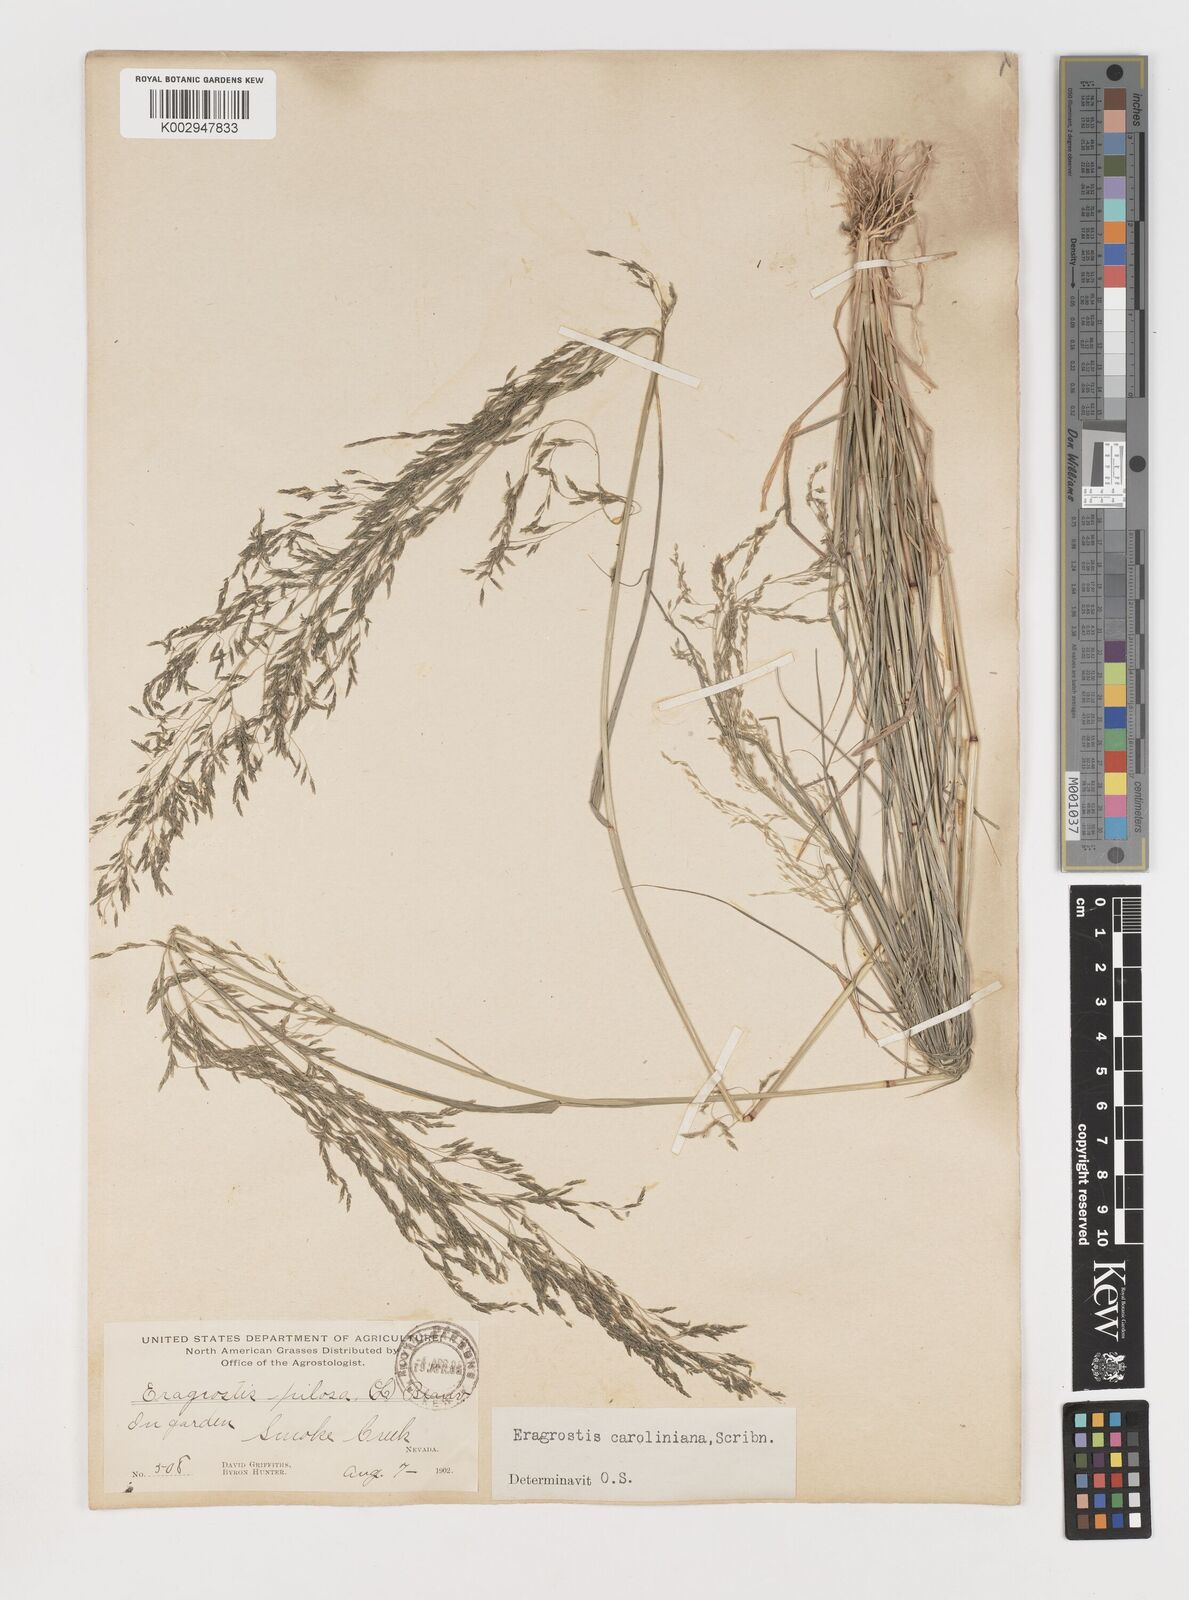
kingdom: Plantae
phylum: Tracheophyta
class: Liliopsida
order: Poales
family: Poaceae
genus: Eragrostis
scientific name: Eragrostis pectinacea
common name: Tufted lovegrass
